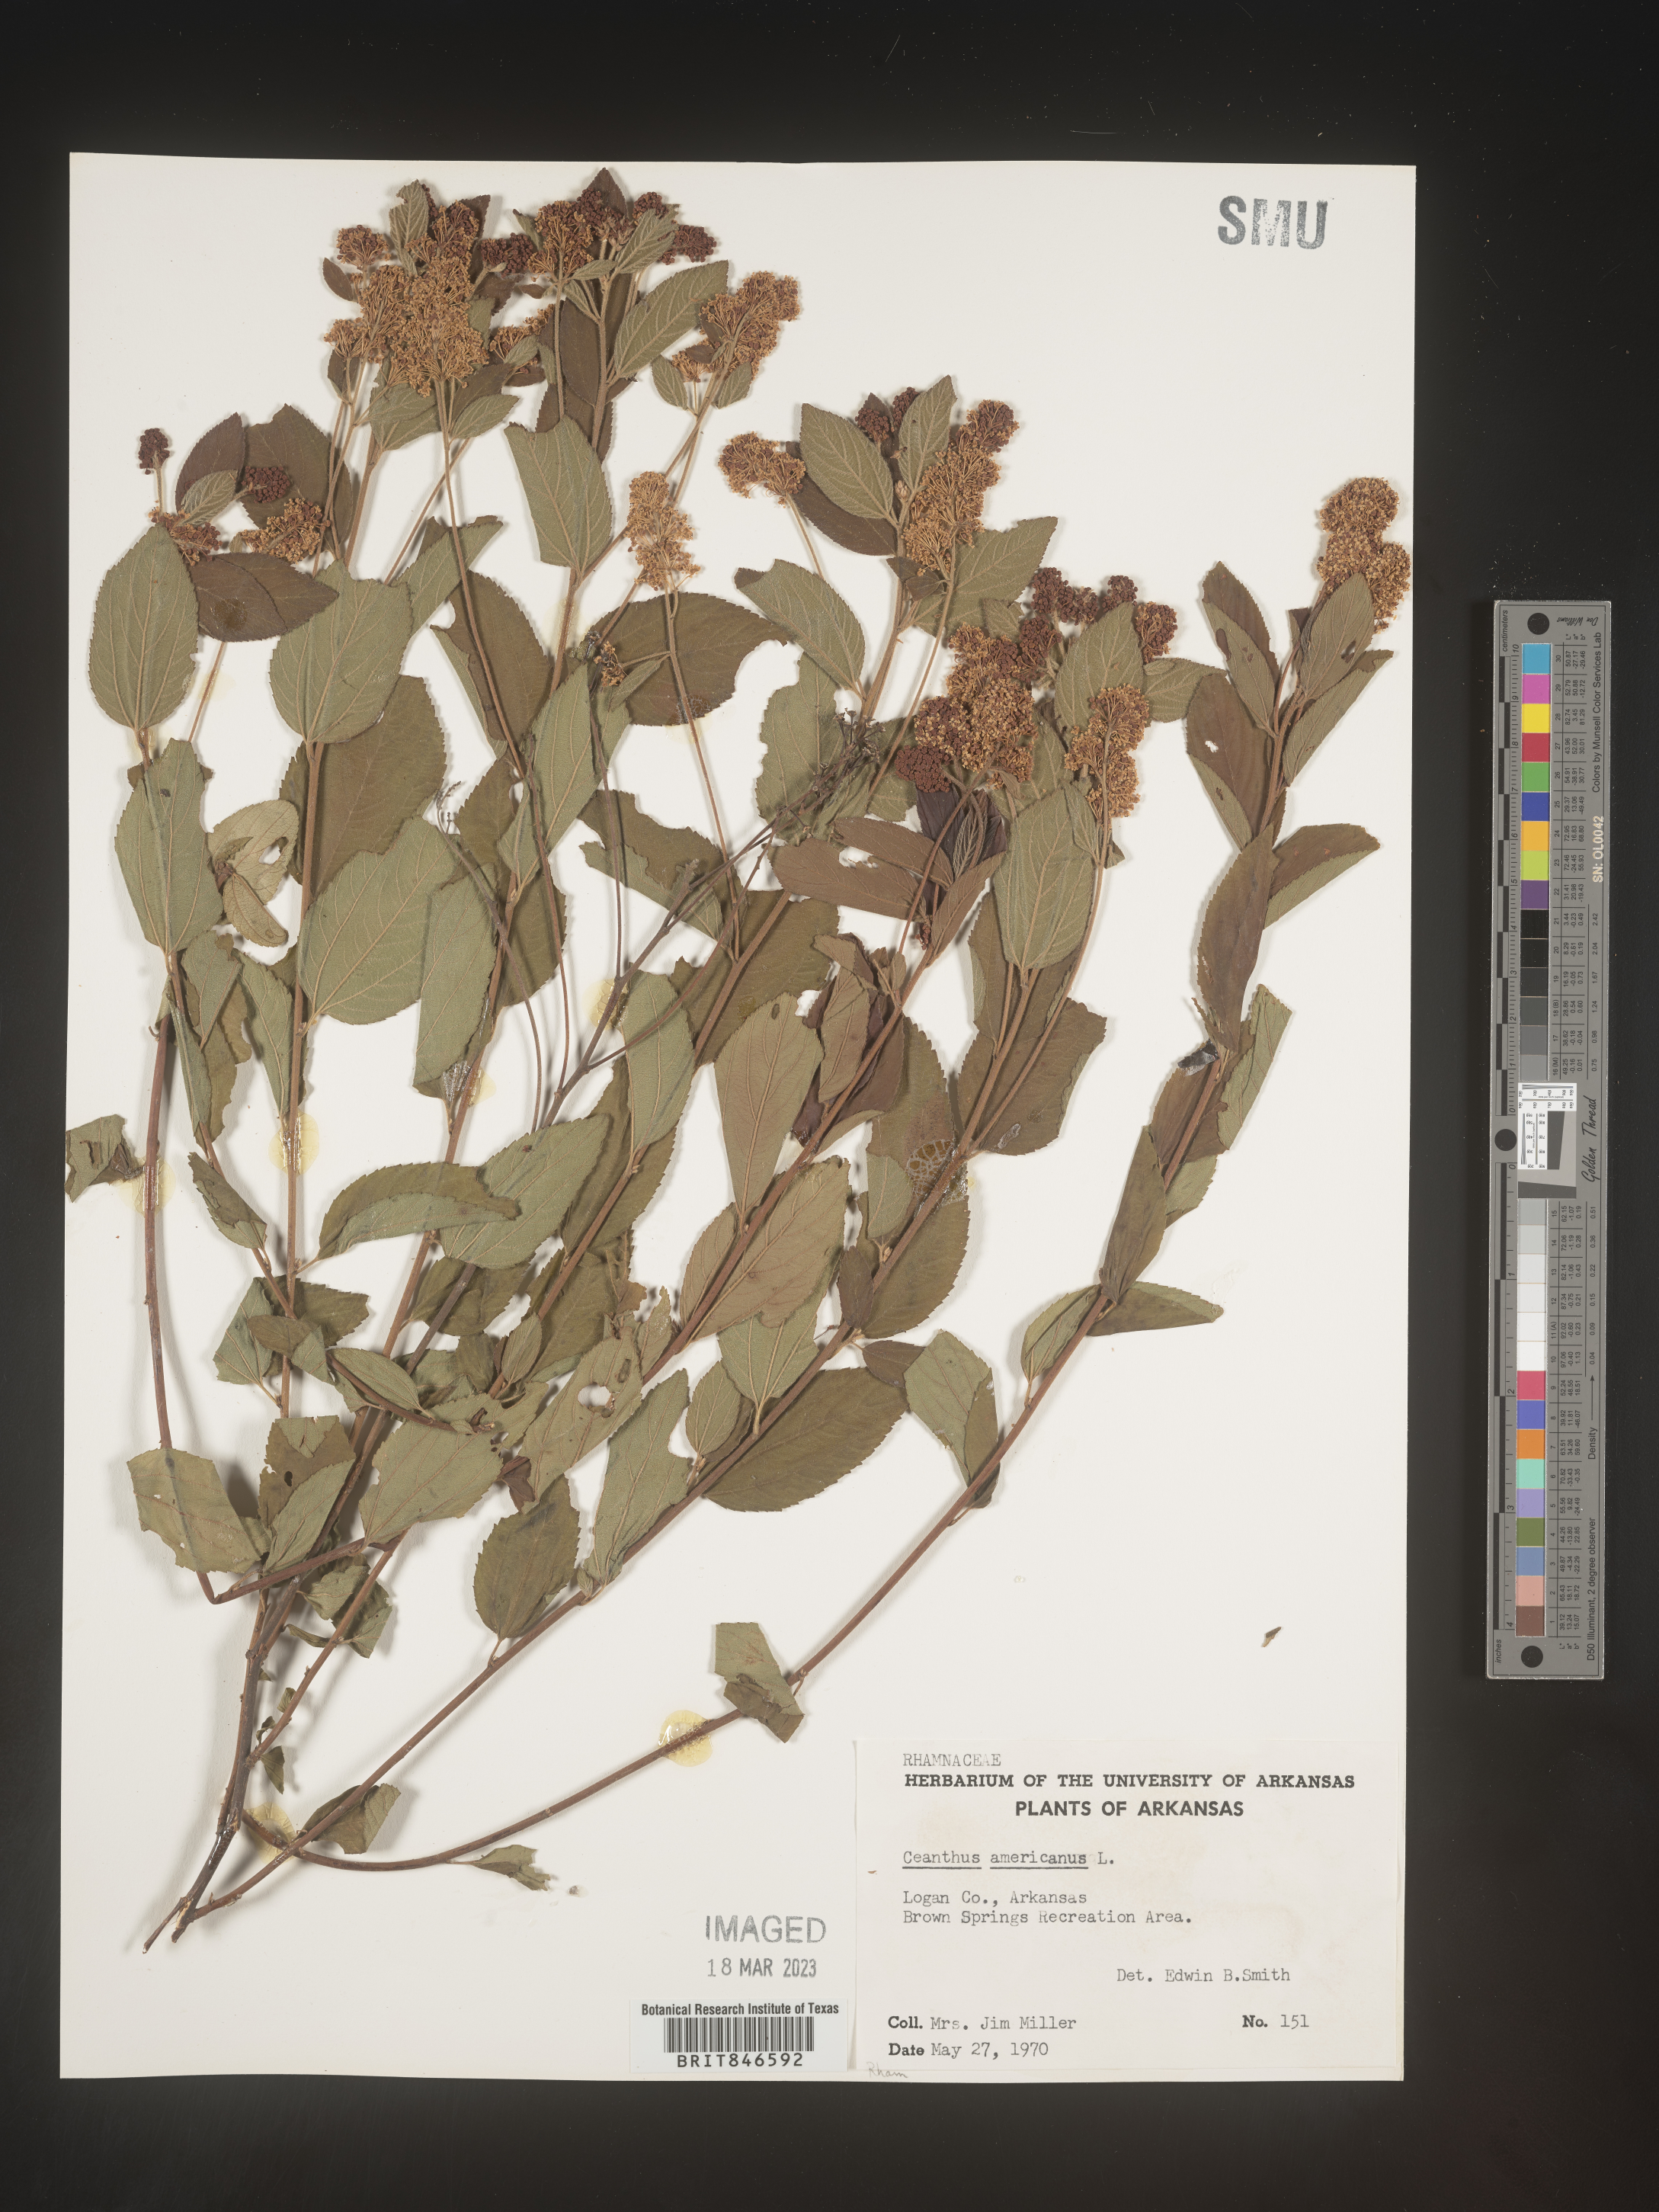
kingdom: Plantae
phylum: Tracheophyta
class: Magnoliopsida
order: Rosales
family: Rhamnaceae
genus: Ceanothus
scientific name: Ceanothus americanus
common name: Redroot
